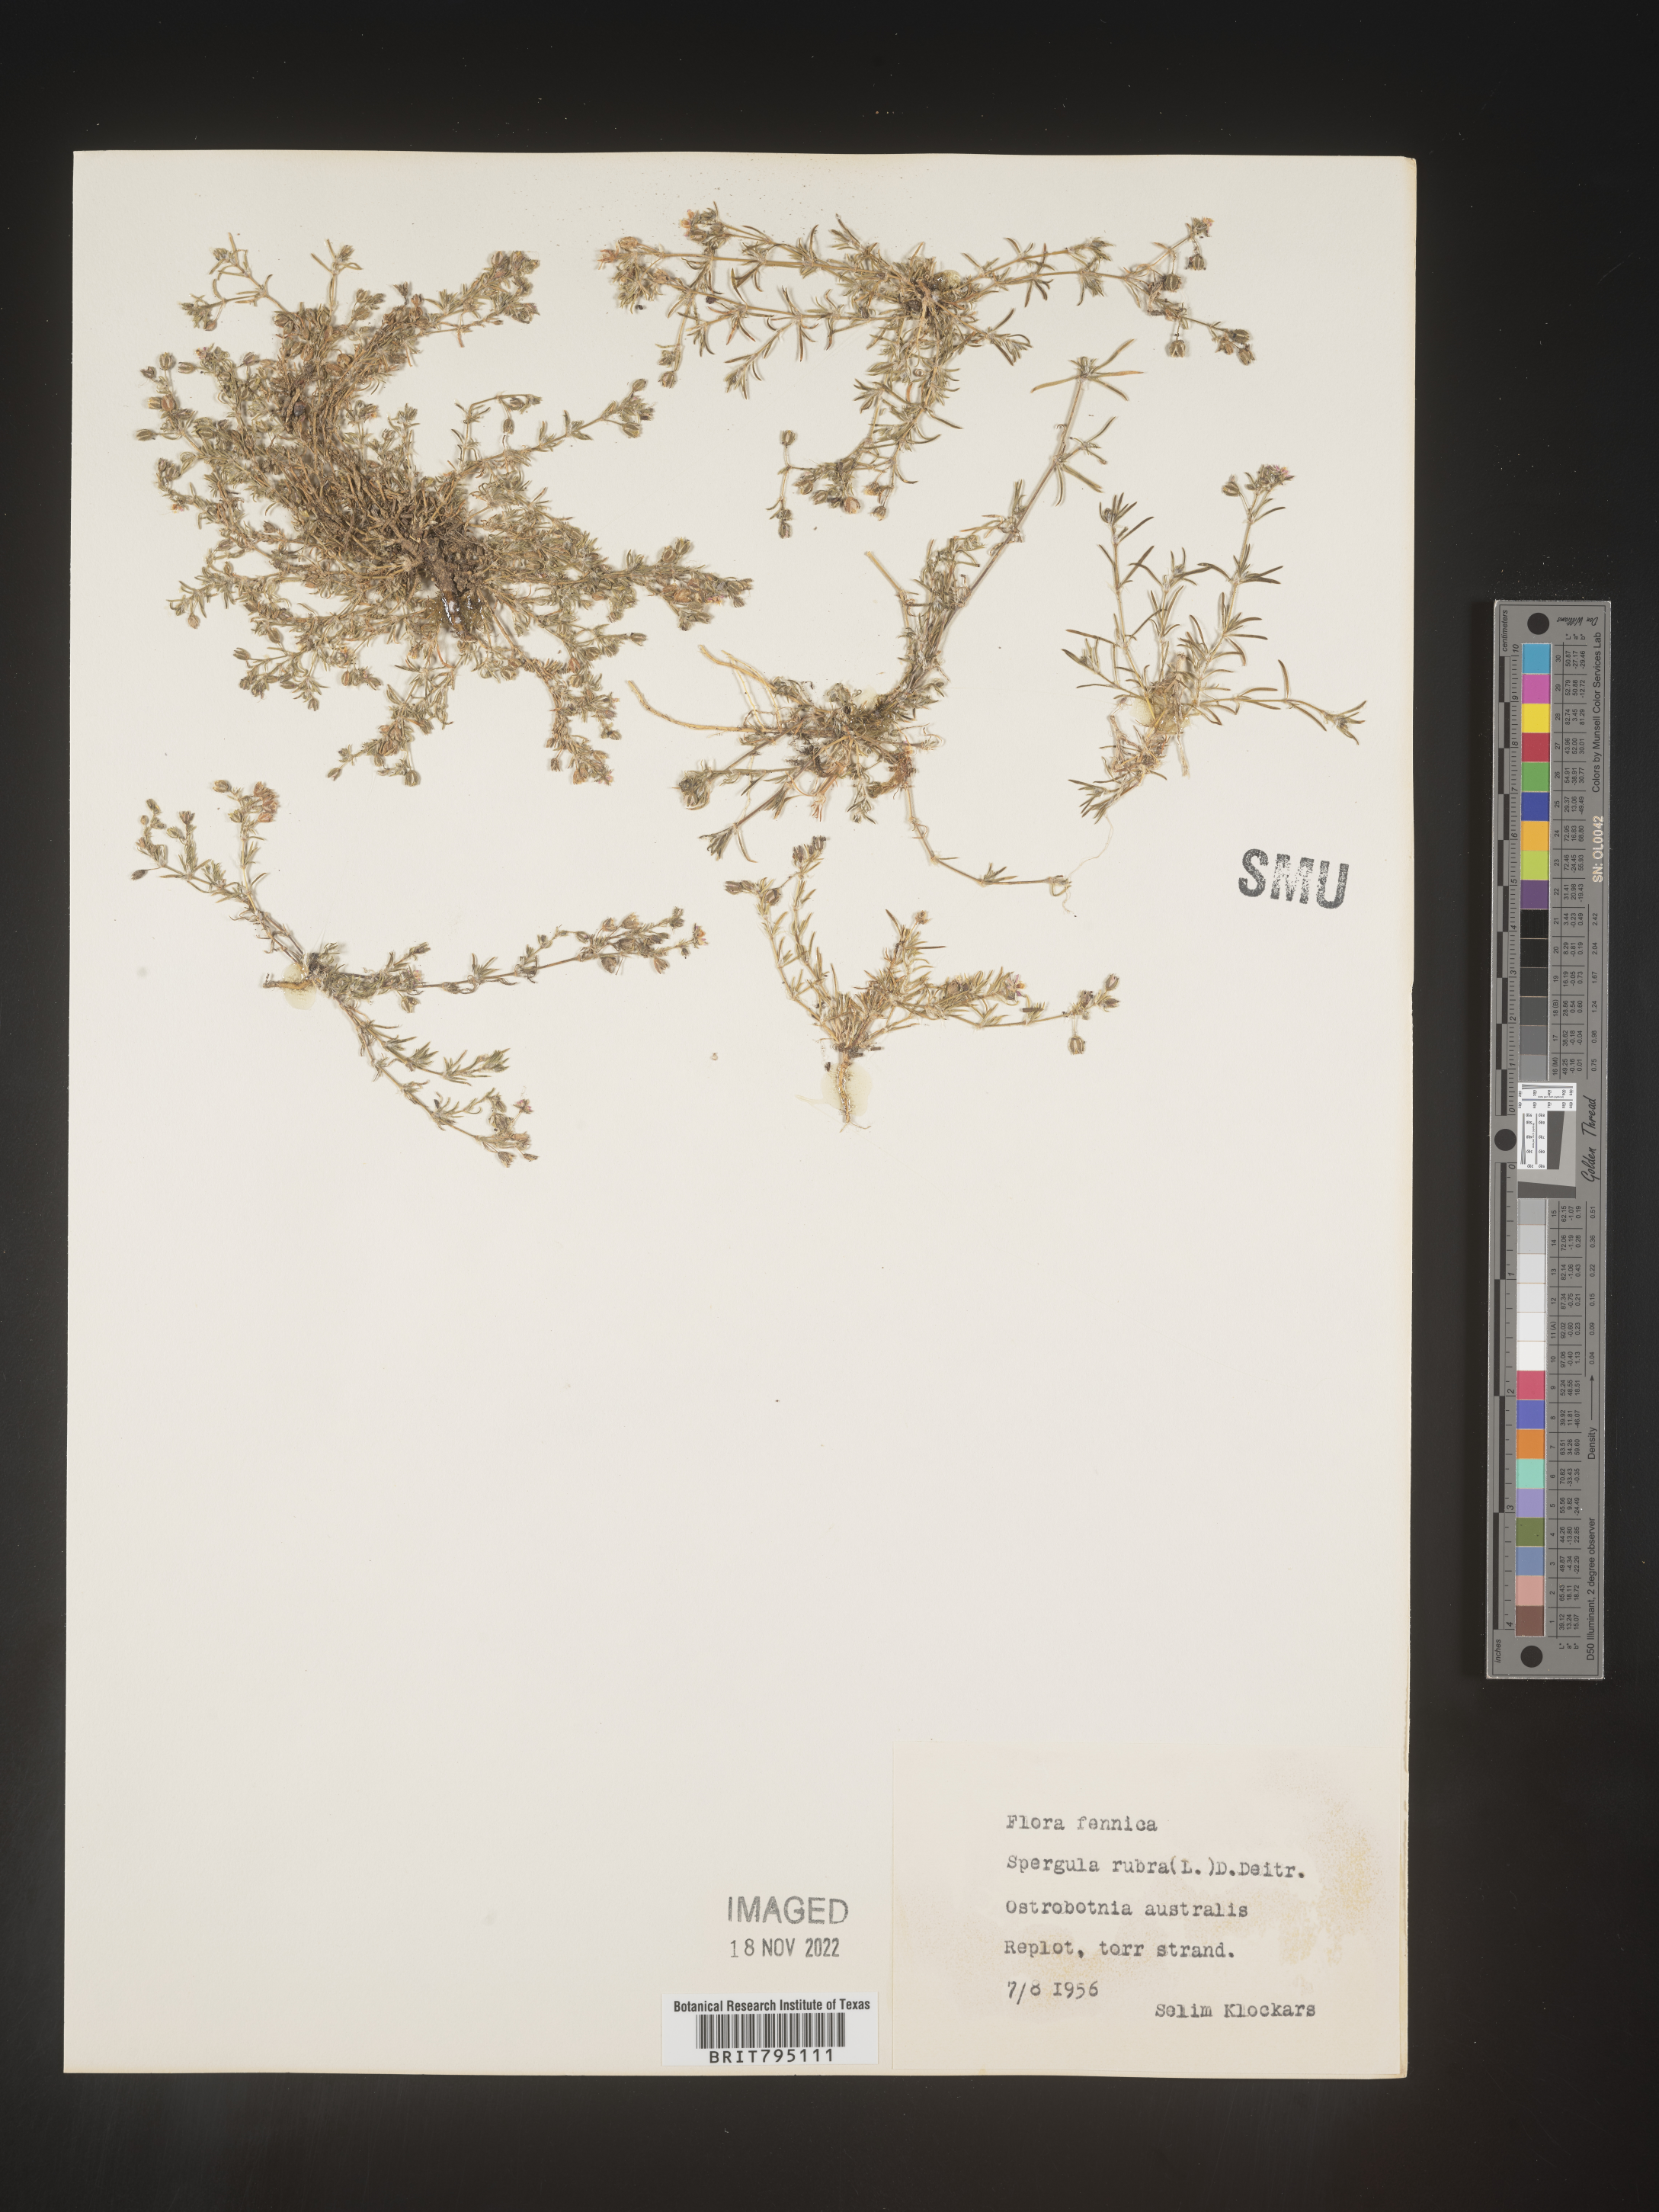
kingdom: Plantae
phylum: Tracheophyta
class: Magnoliopsida
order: Caryophyllales
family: Caryophyllaceae
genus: Spergula
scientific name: Spergula rubra
